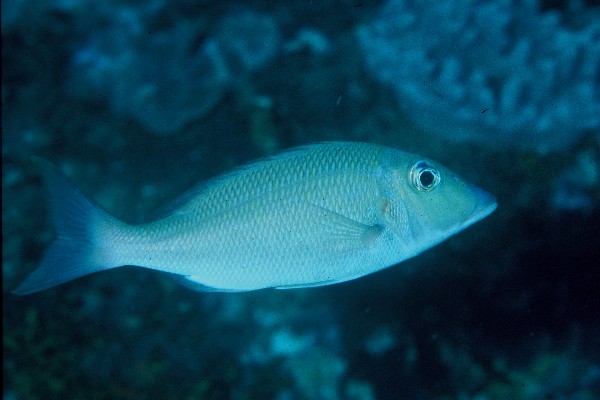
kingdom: Animalia
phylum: Chordata
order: Perciformes
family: Lethrinidae
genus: Lethrinus
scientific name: Lethrinus rubrioperculatus
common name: Spotcheek emperor
